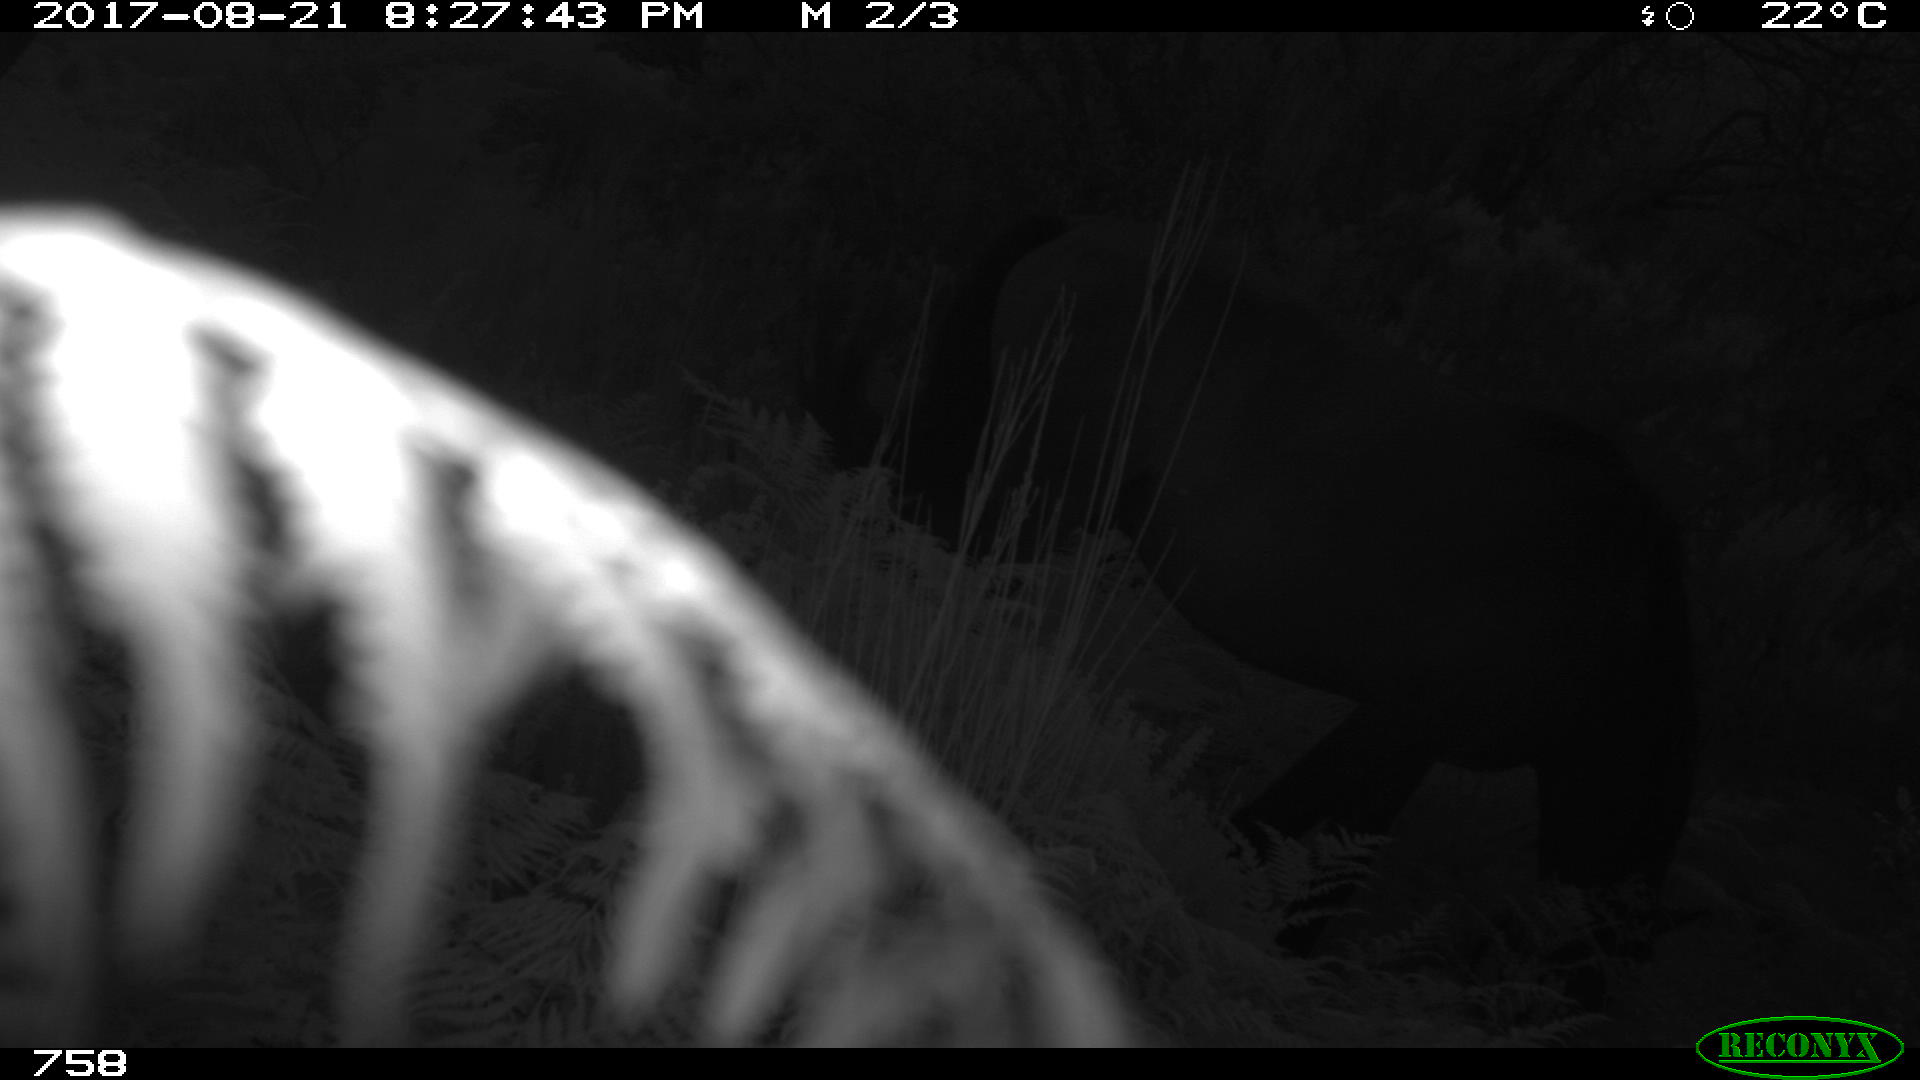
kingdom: Animalia
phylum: Chordata
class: Mammalia
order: Perissodactyla
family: Equidae
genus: Equus
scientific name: Equus caballus
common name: Horse
